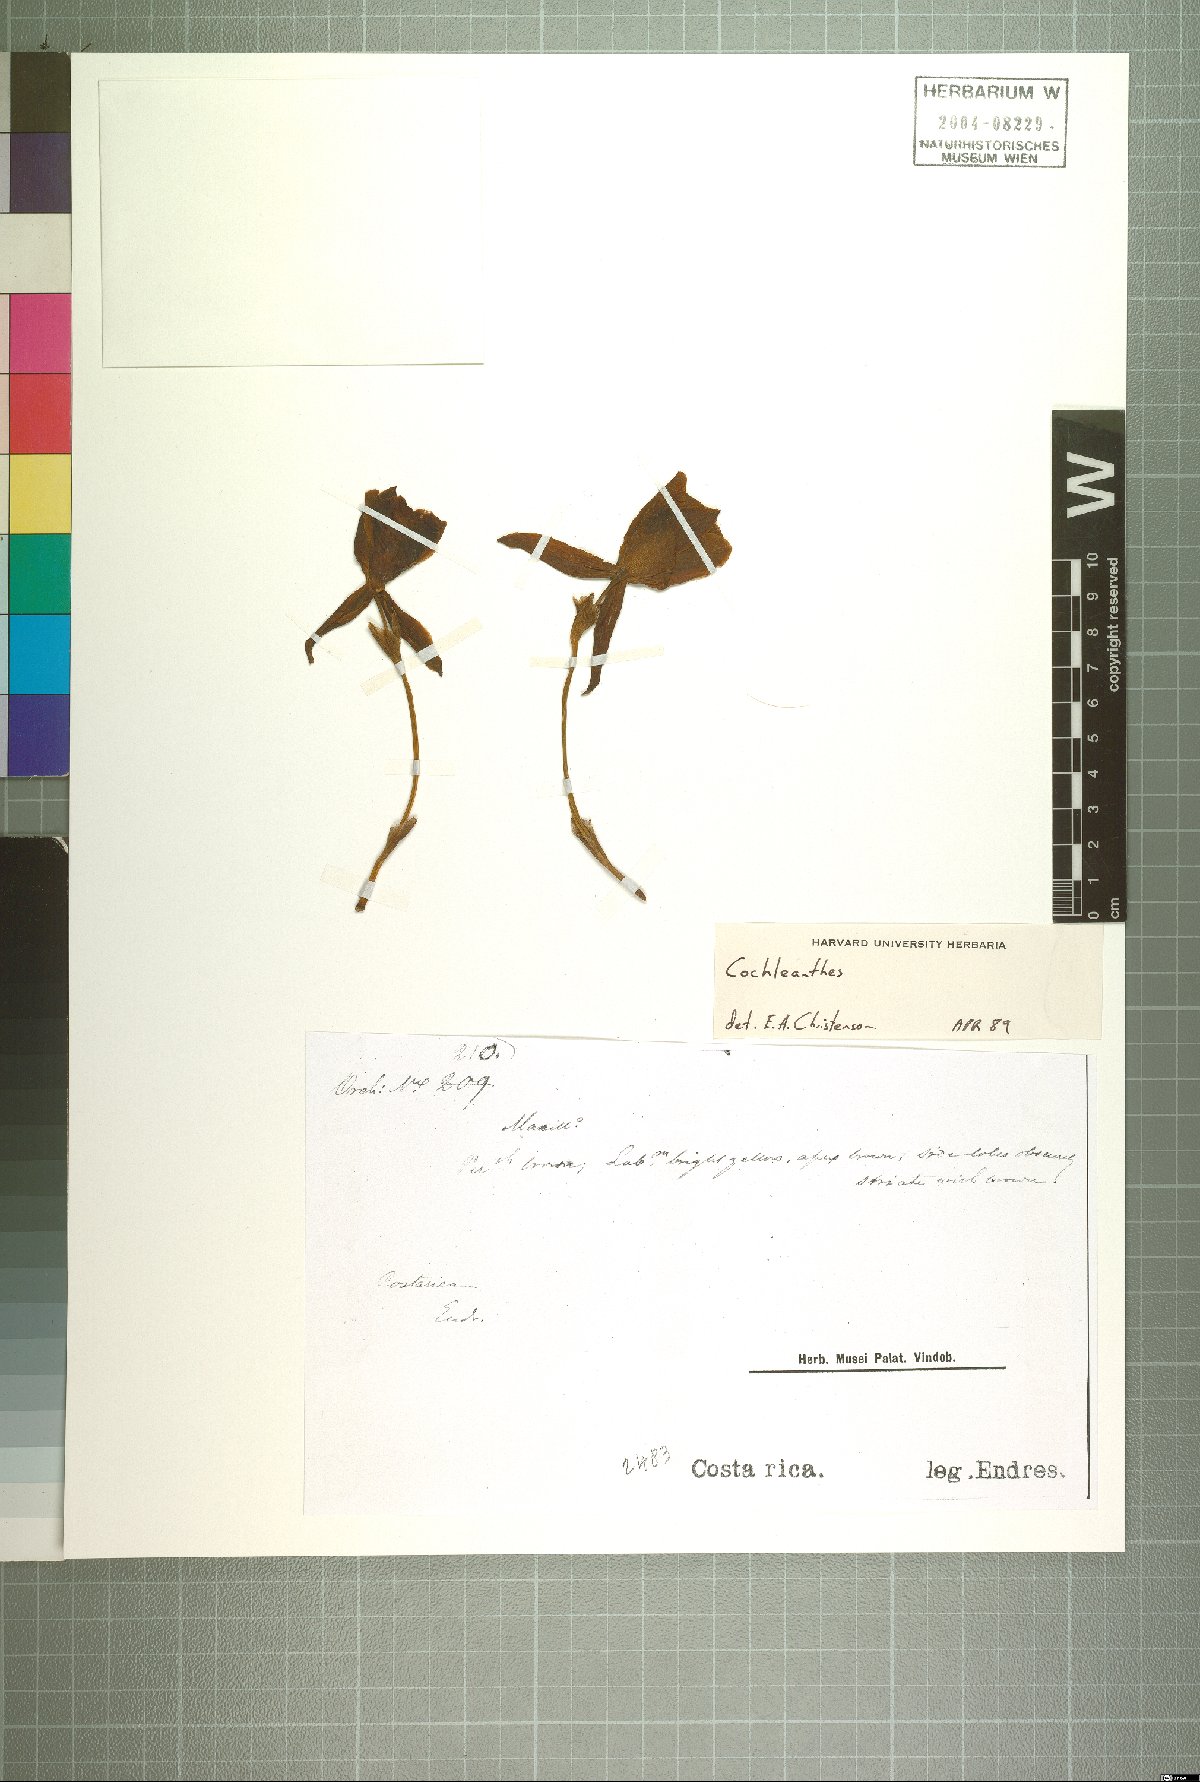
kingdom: Plantae
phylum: Tracheophyta
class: Liliopsida
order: Asparagales
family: Orchidaceae
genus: Cochleanthes
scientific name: Cochleanthes
